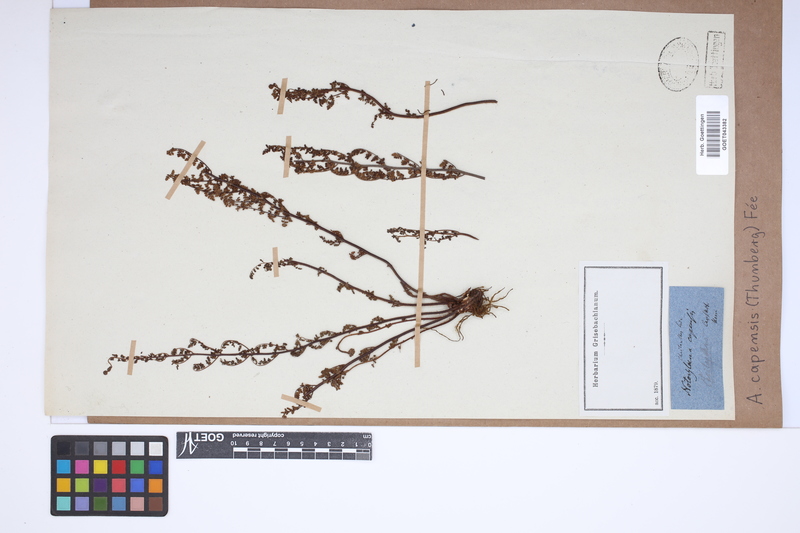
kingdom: Plantae
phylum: Tracheophyta
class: Polypodiopsida
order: Polypodiales
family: Pteridaceae
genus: Cheilanthes
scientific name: Cheilanthes capensis
